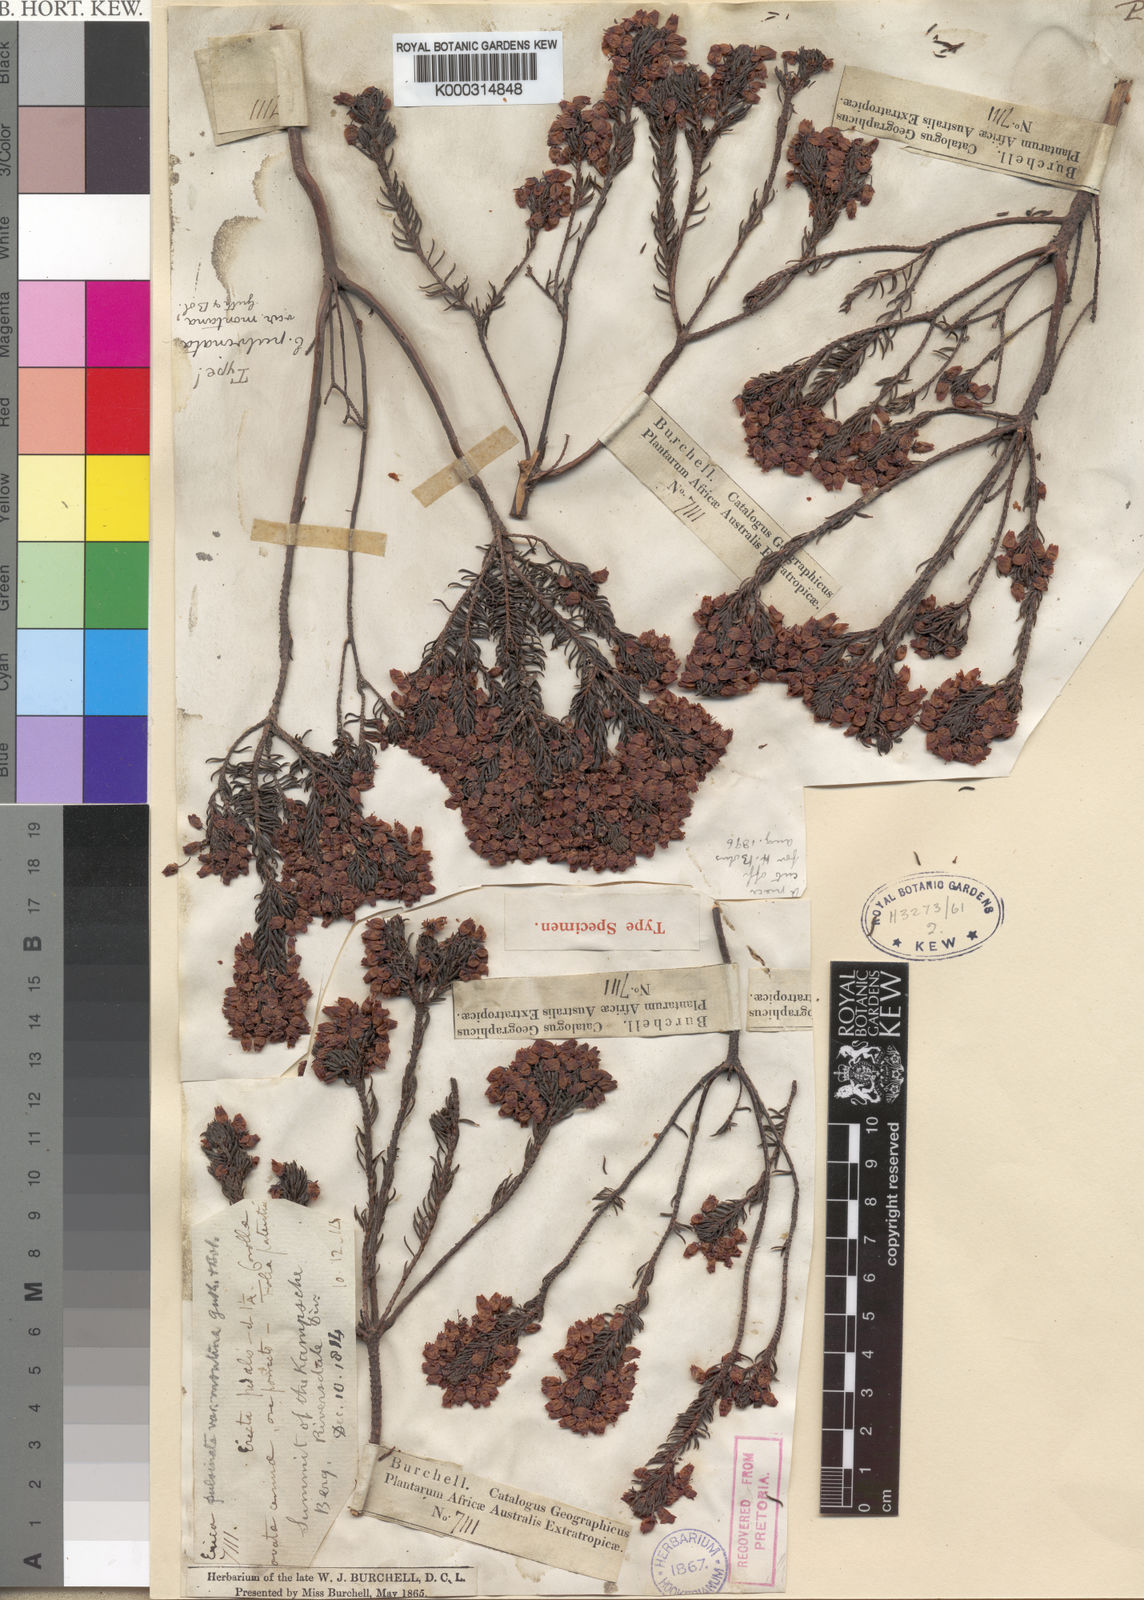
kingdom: Plantae
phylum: Tracheophyta
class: Magnoliopsida
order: Ericales
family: Ericaceae
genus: Erica
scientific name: Erica pulvinata
